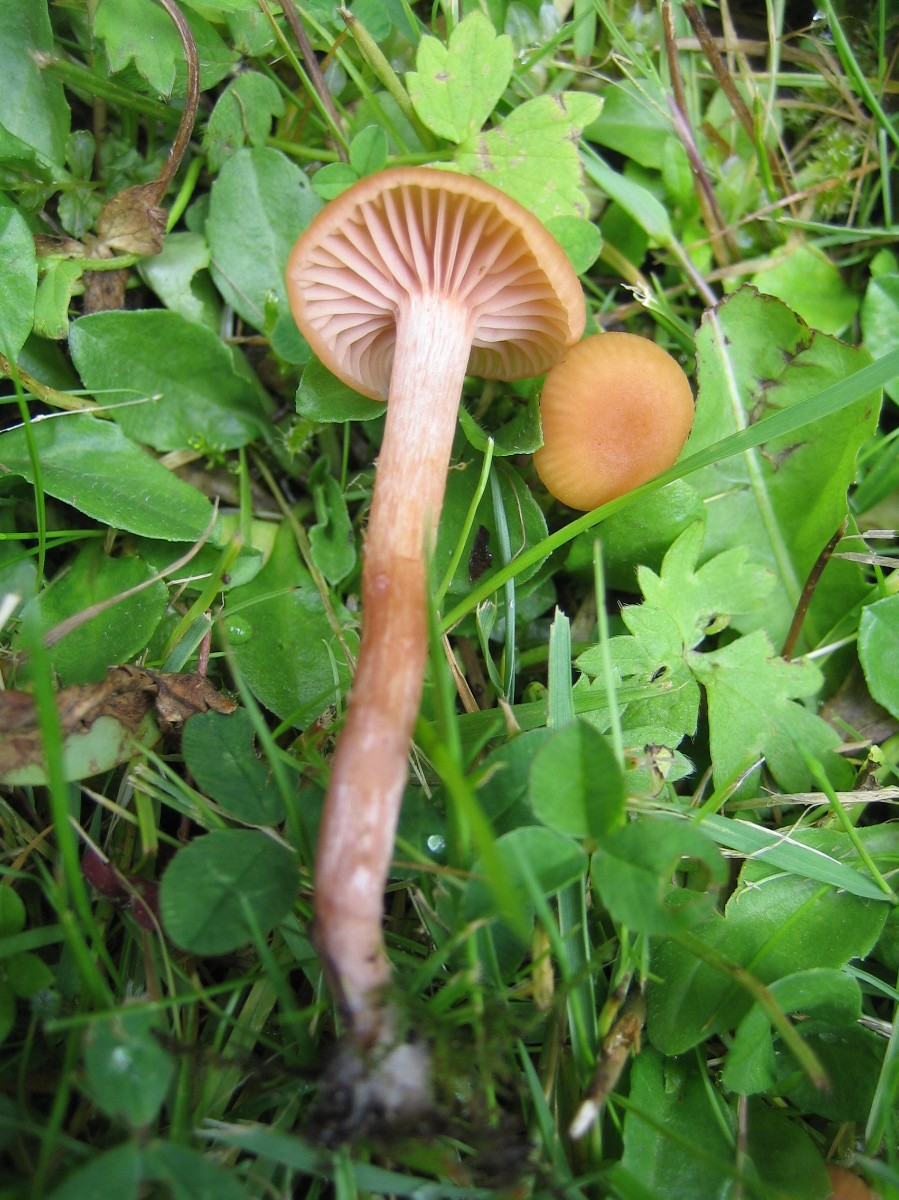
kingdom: Fungi
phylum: Basidiomycota
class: Agaricomycetes
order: Agaricales
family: Hydnangiaceae
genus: Laccaria
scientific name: Laccaria laccata
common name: rød ametysthat
